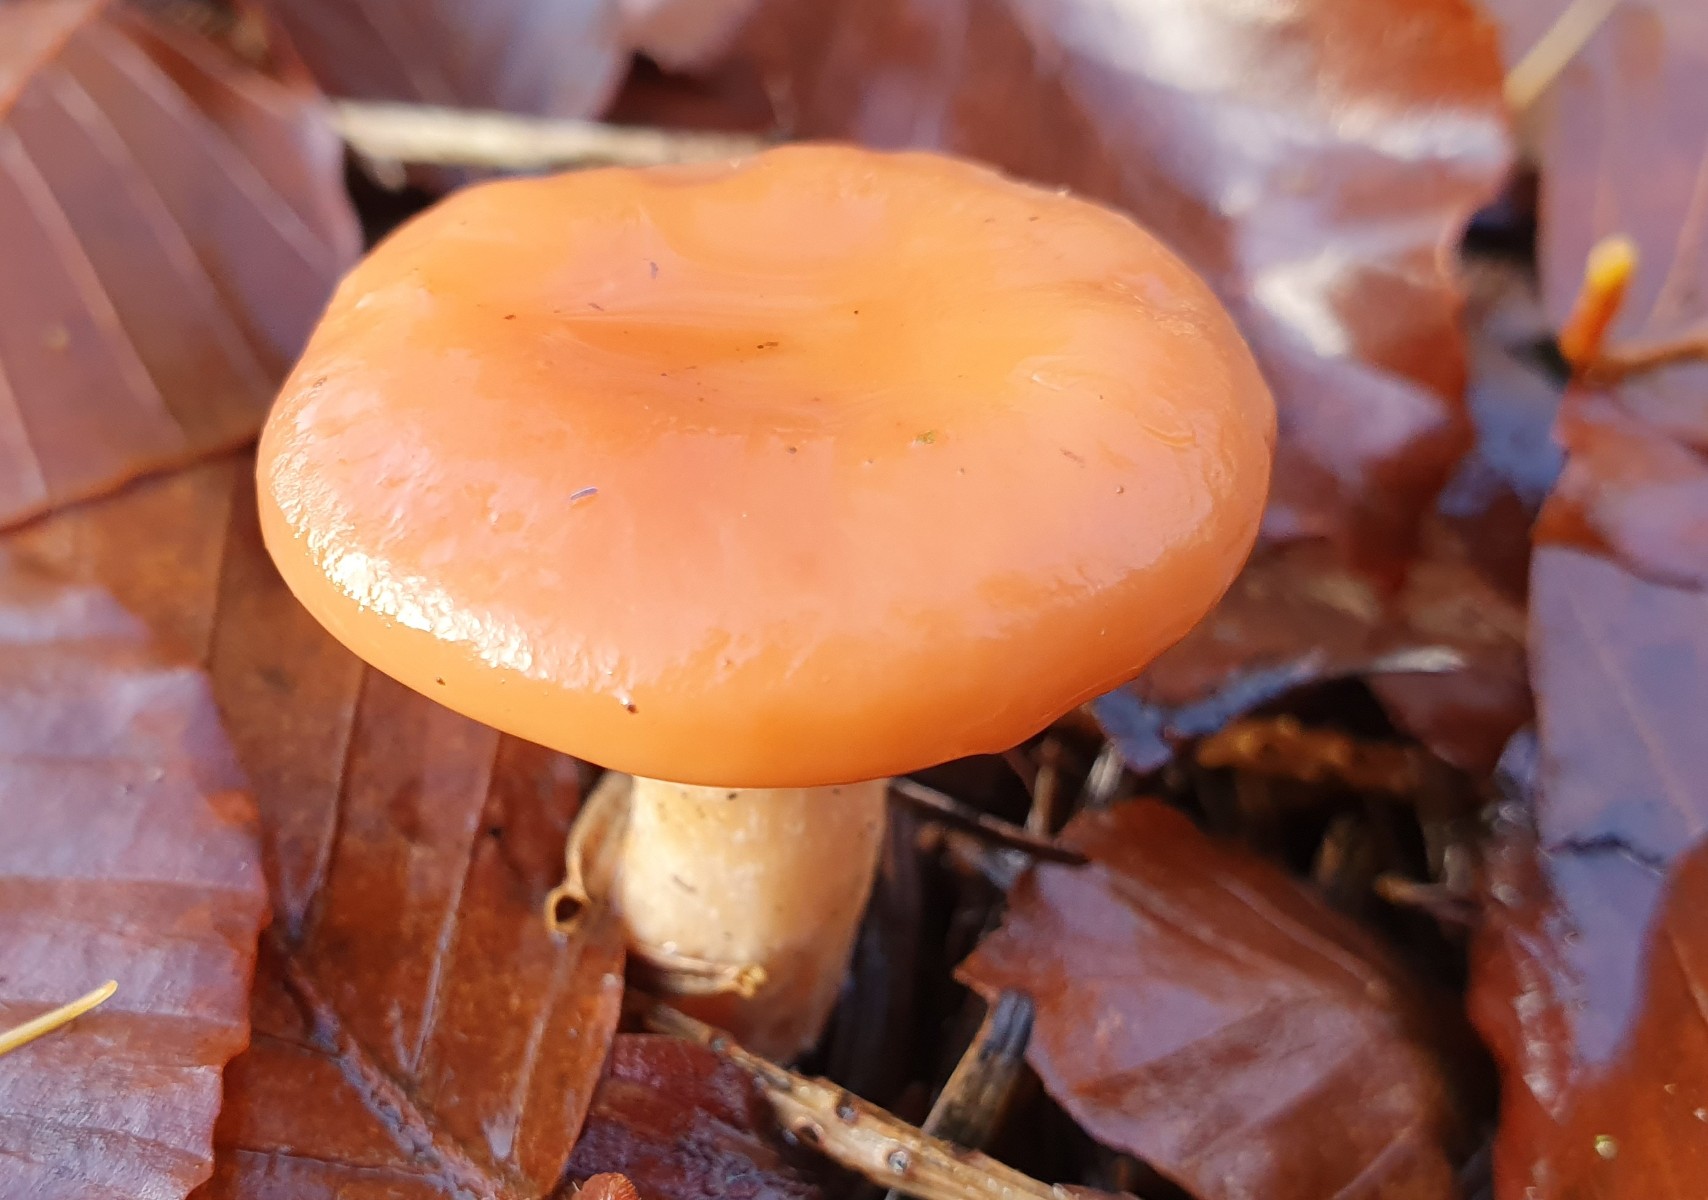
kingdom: Fungi
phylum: Basidiomycota
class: Agaricomycetes
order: Agaricales
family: Tricholomataceae
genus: Paralepista
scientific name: Paralepista flaccida
